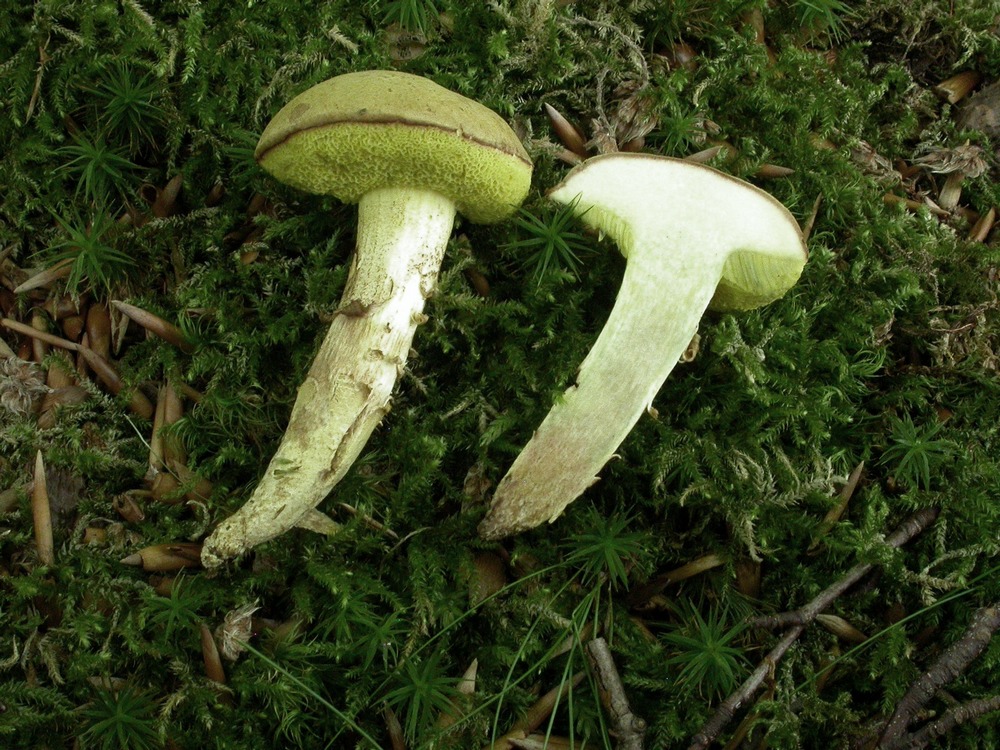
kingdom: Fungi
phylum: Basidiomycota
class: Agaricomycetes
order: Boletales
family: Boletaceae
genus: Xerocomus
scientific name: Xerocomus ferrugineus
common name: vaskeskinds-rørhat
